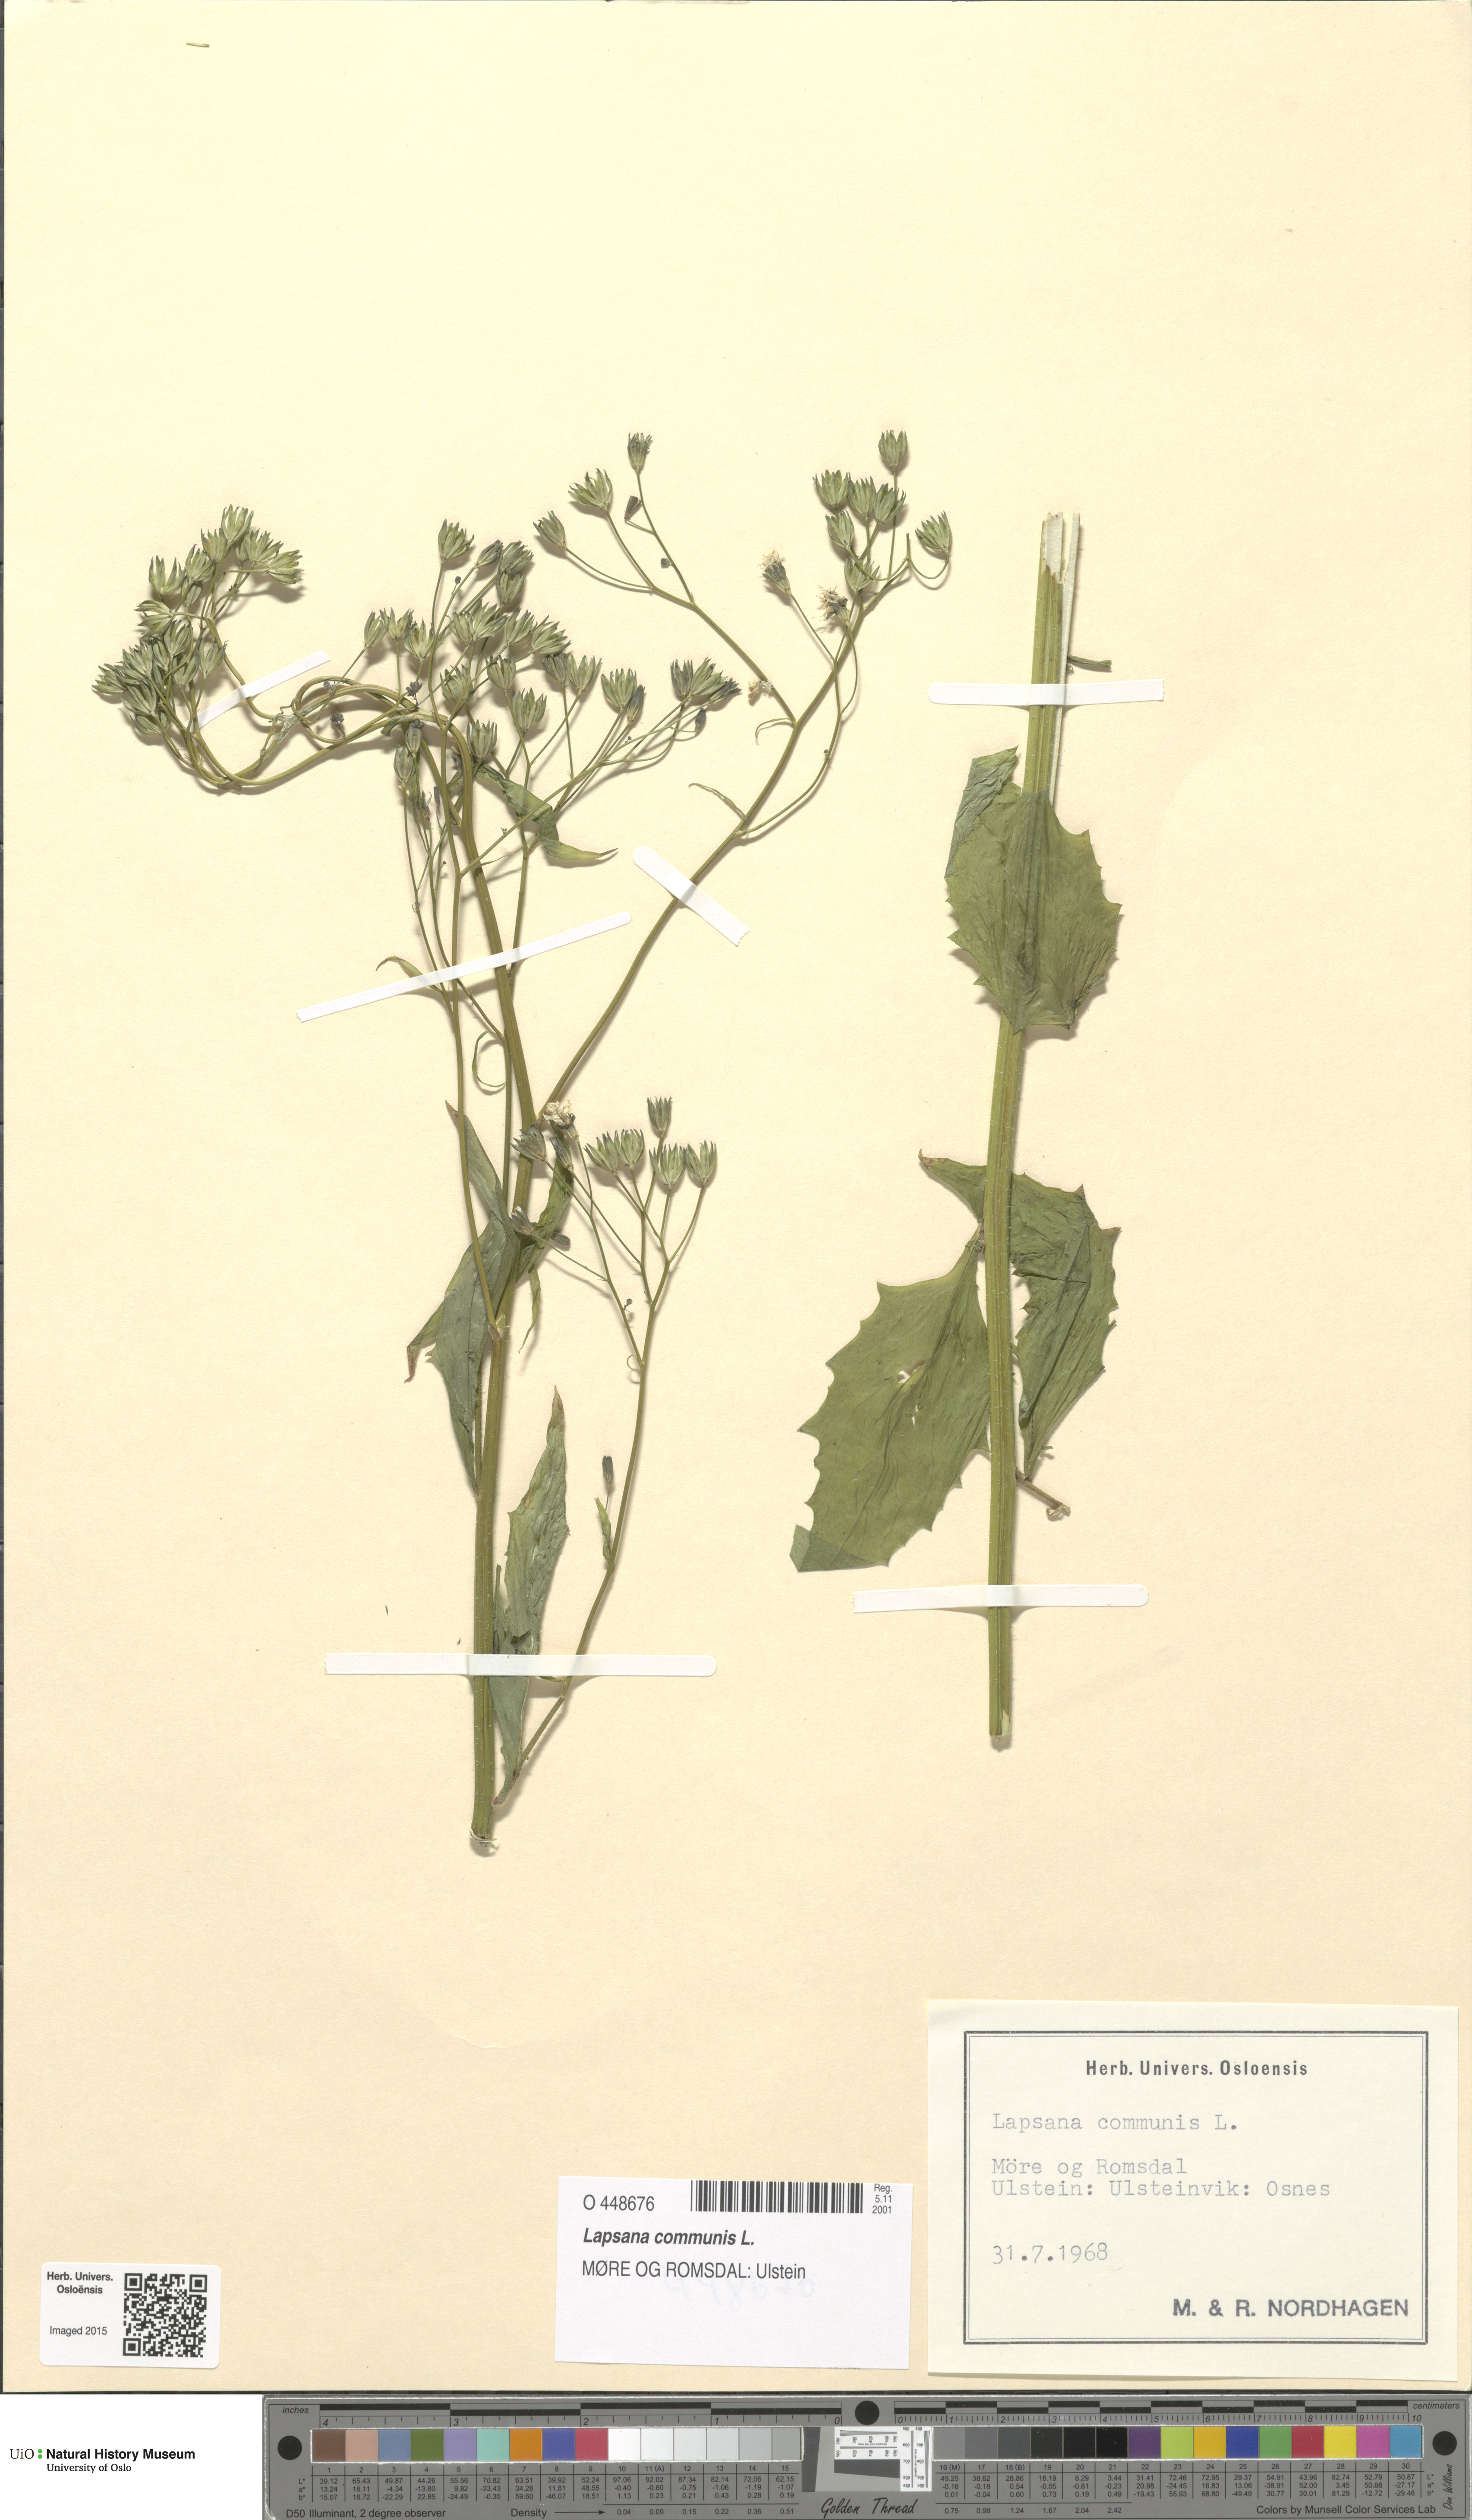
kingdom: Plantae
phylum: Tracheophyta
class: Magnoliopsida
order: Asterales
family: Asteraceae
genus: Lapsana
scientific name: Lapsana communis
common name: Nipplewort
